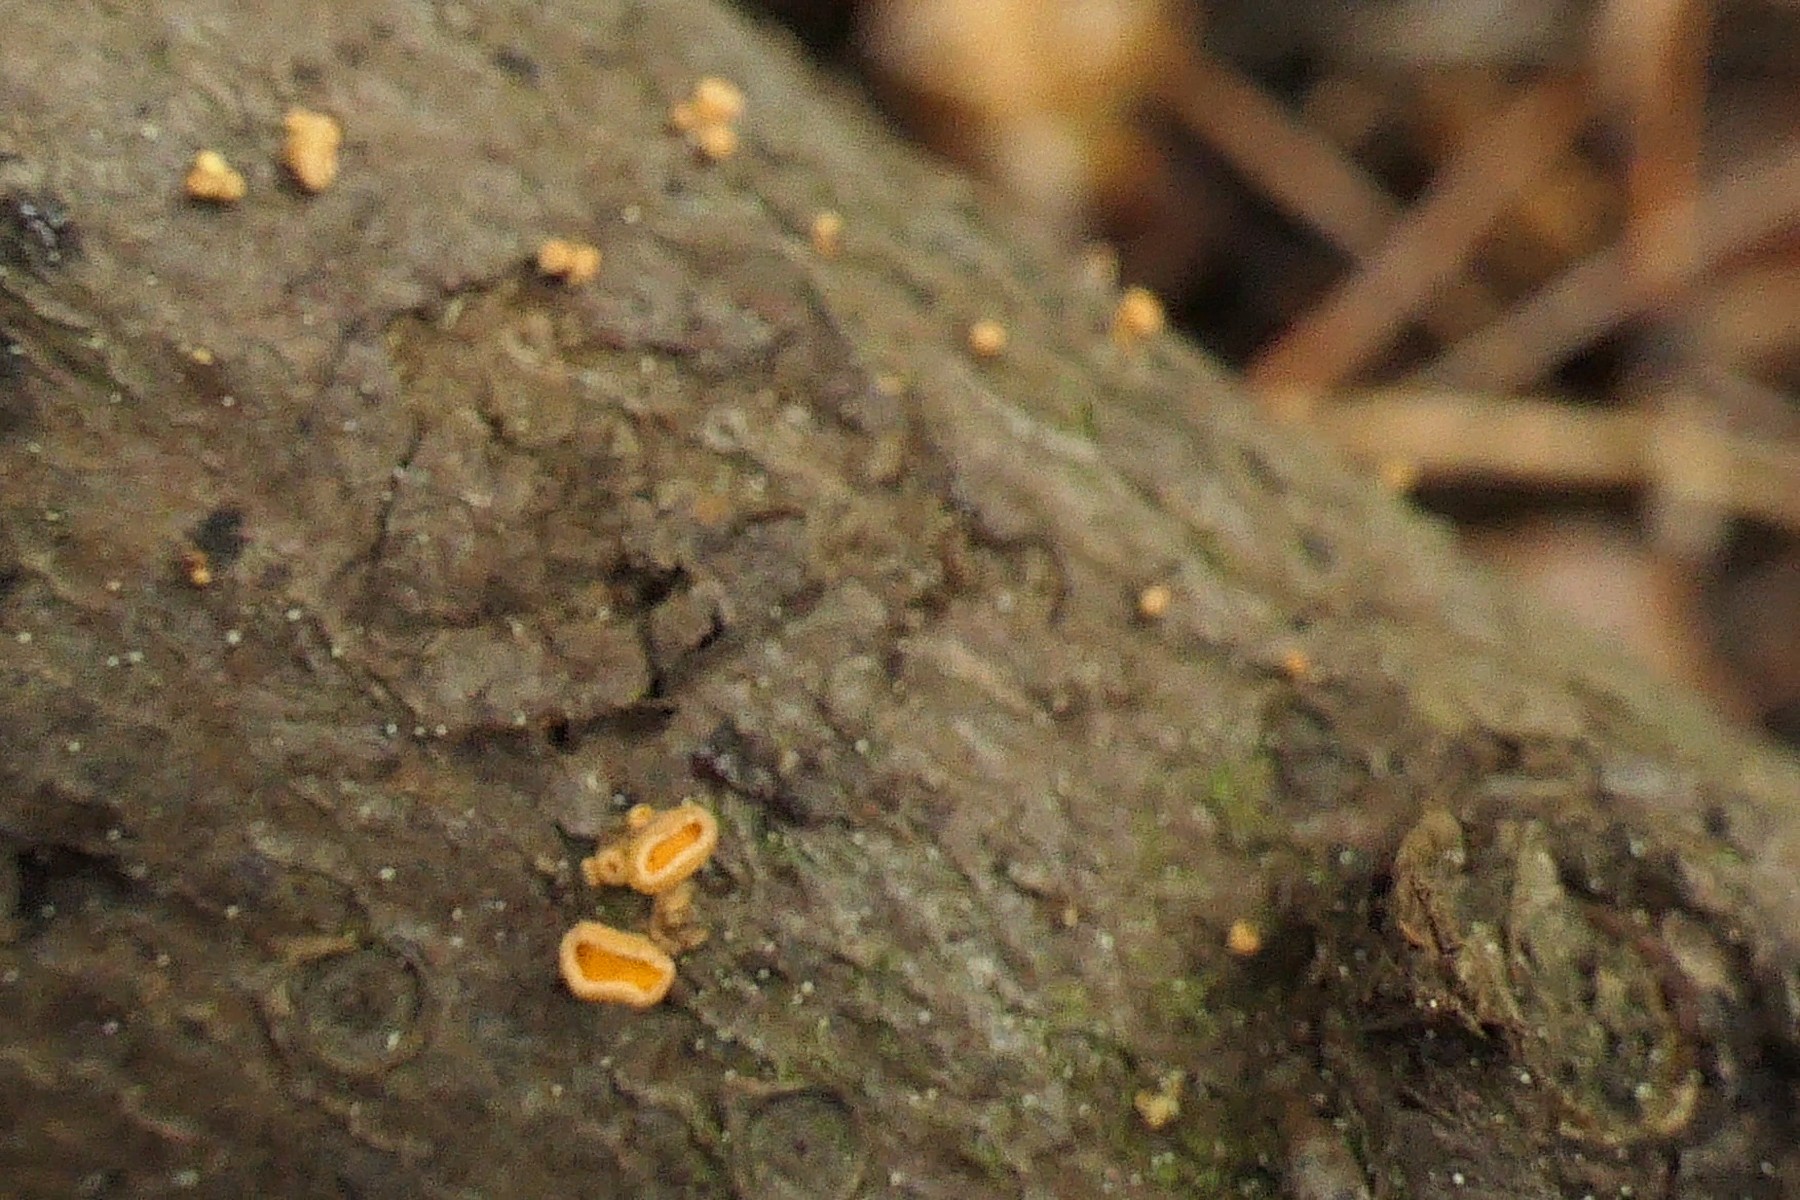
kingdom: Fungi
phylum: Ascomycota
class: Leotiomycetes
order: Helotiales
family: Lachnaceae
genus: Lachnellula
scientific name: Lachnellula subtilissima
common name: gran-frynseskive
